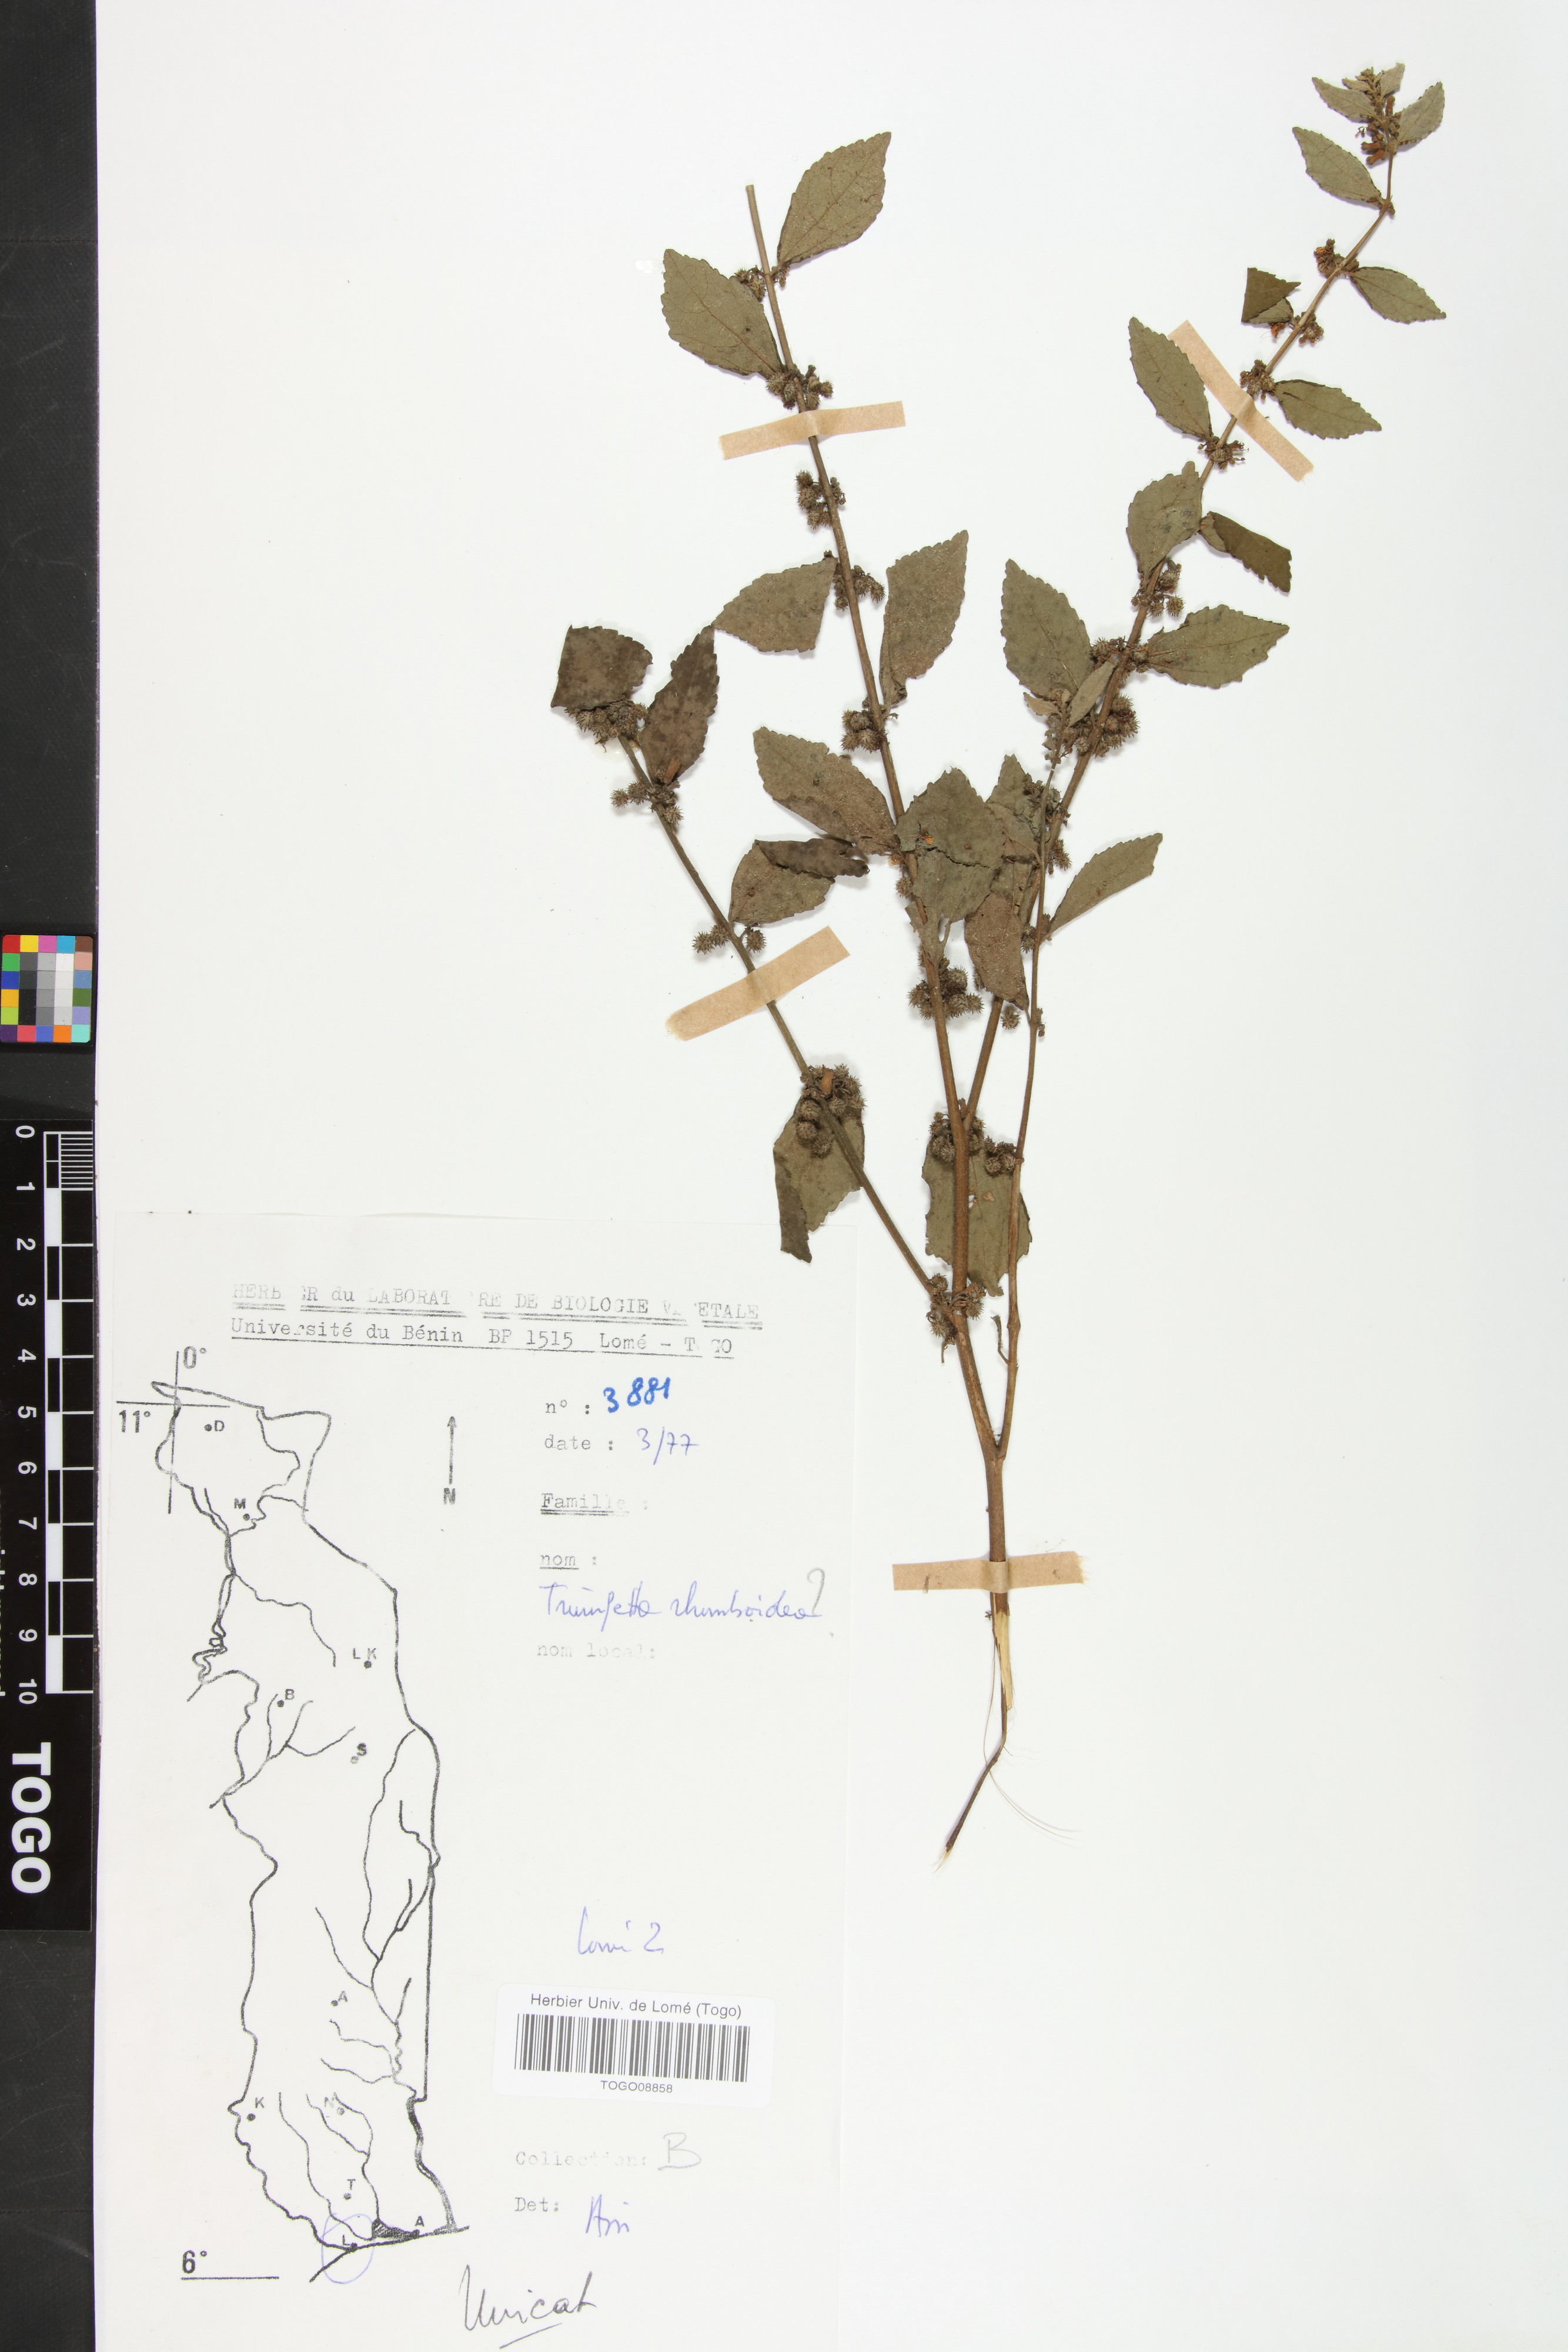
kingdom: Plantae
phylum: Tracheophyta
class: Magnoliopsida
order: Malvales
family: Malvaceae
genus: Triumfetta
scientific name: Triumfetta rhomboidea
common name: Diamond burbark
